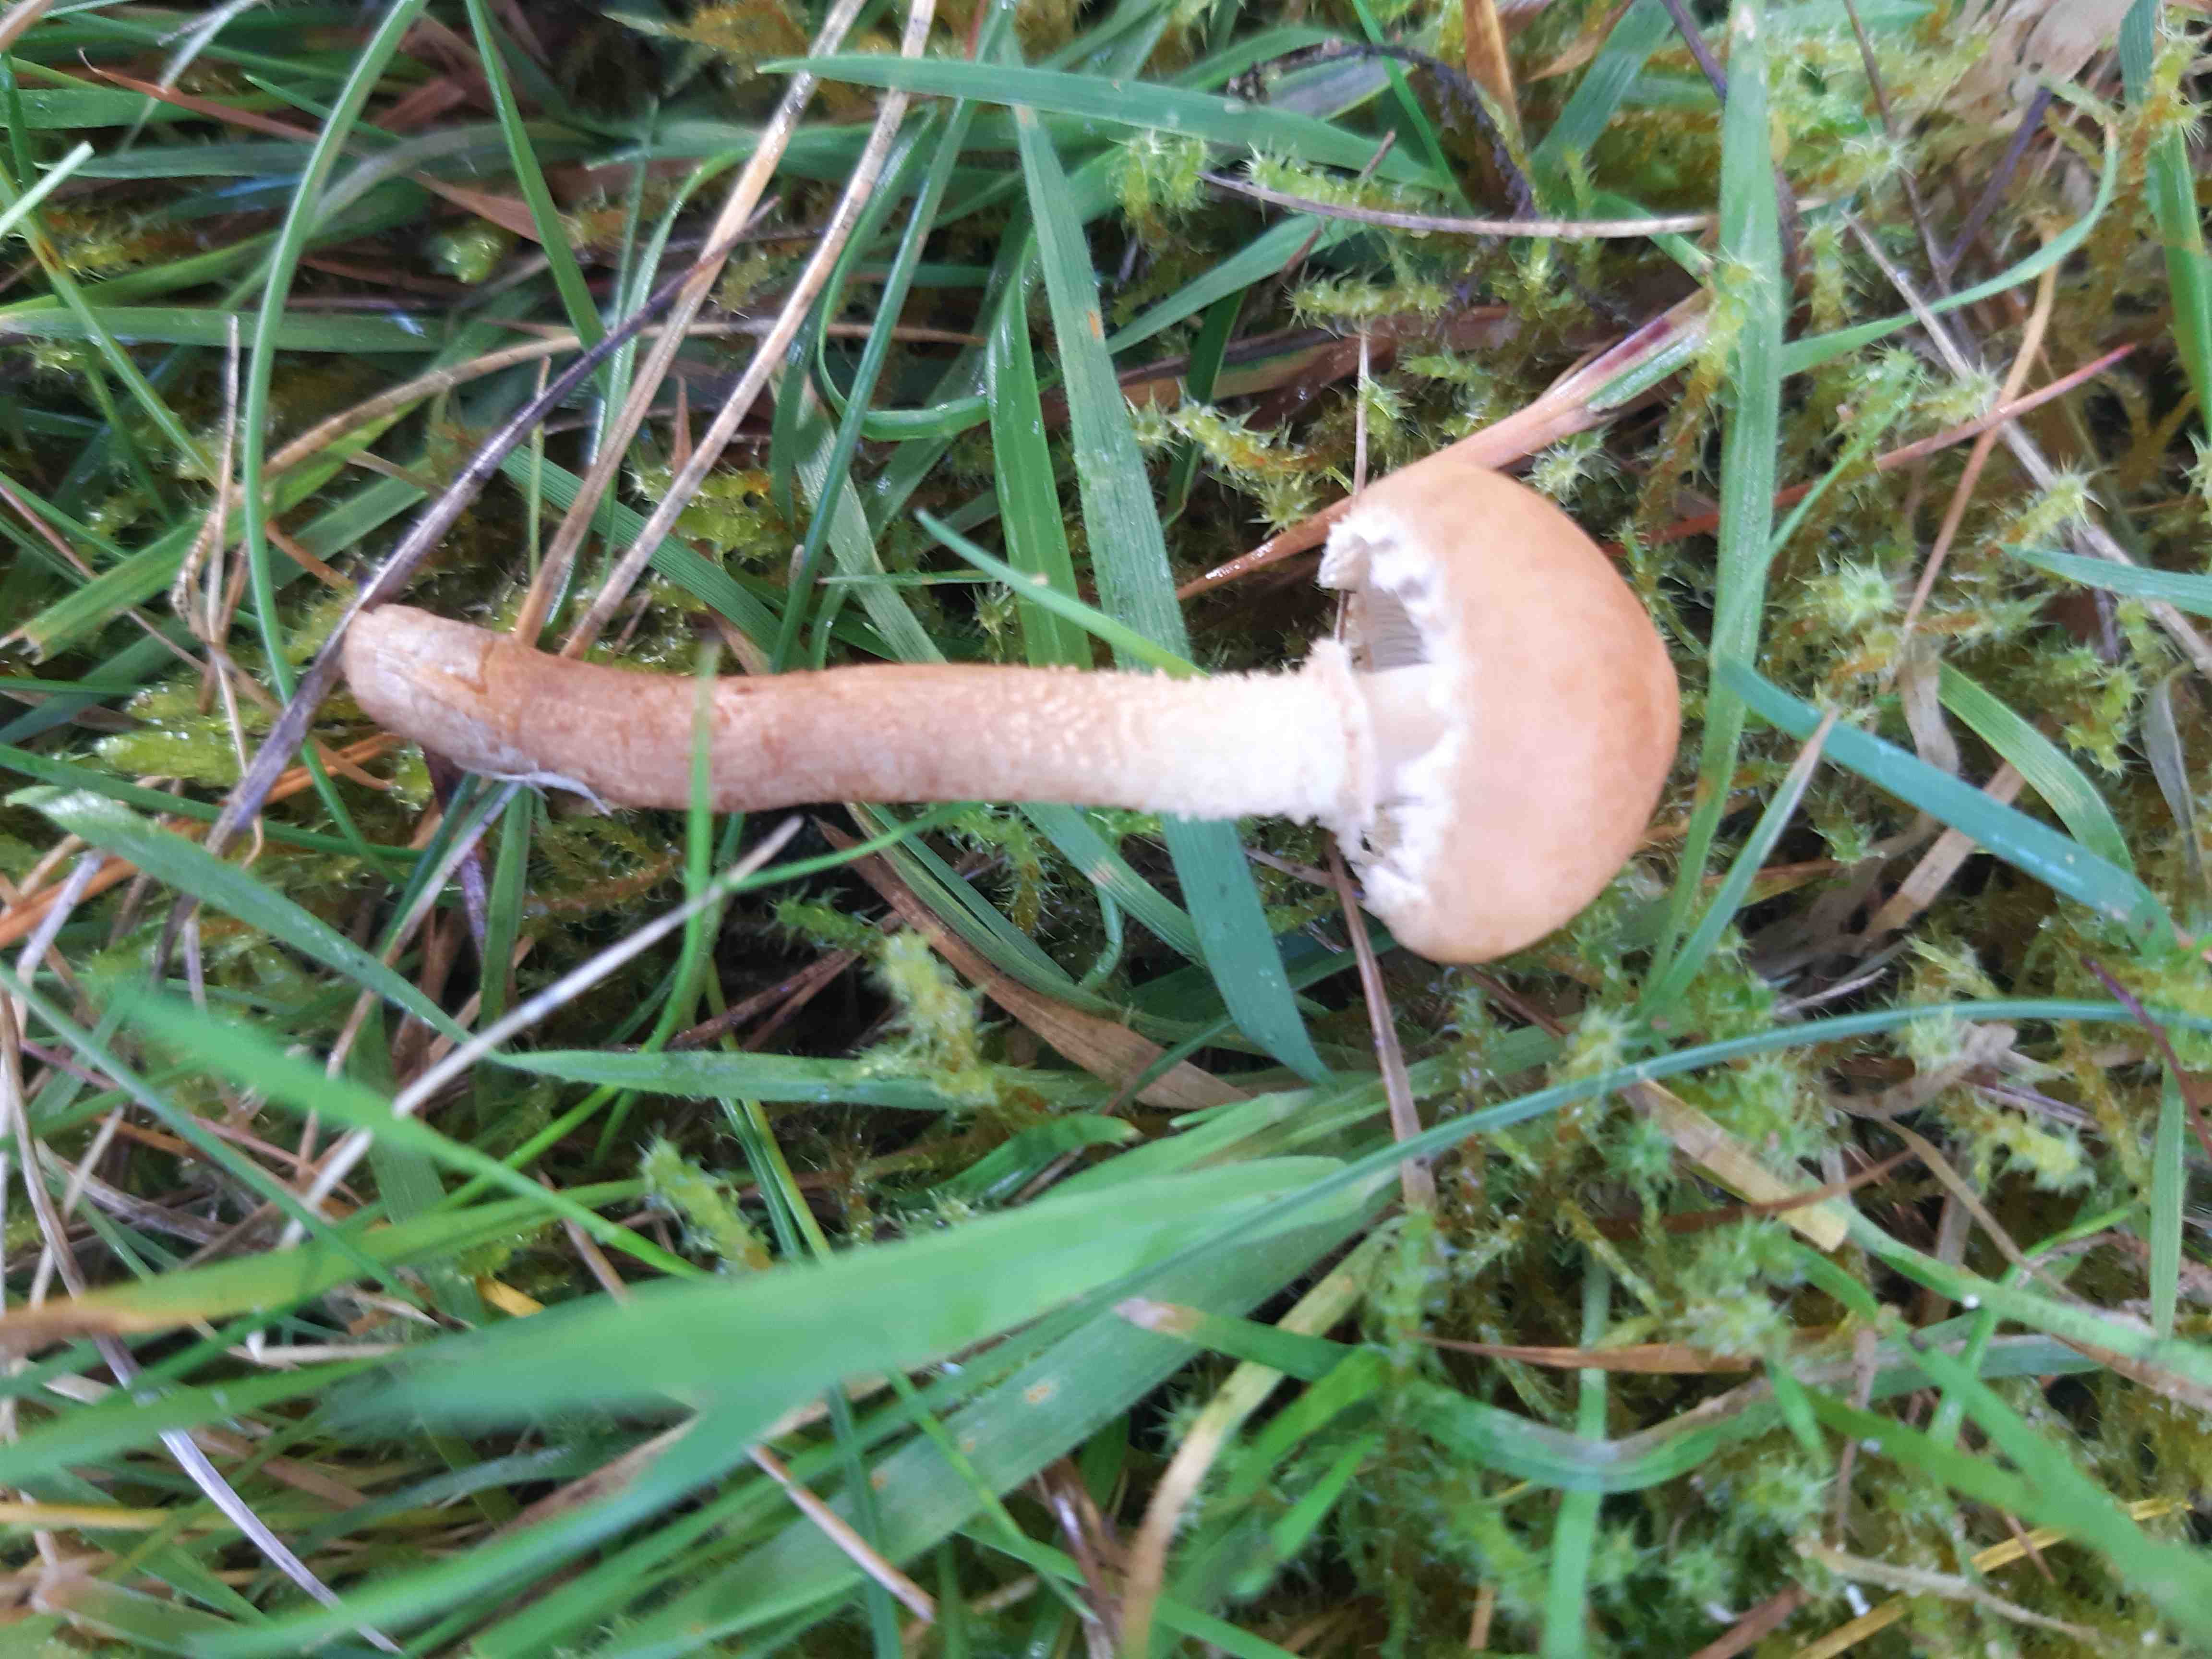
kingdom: Fungi
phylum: Basidiomycota
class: Agaricomycetes
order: Agaricales
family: Tricholomataceae
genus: Cystoderma
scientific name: Cystoderma amianthinum
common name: okkergul grynhat
